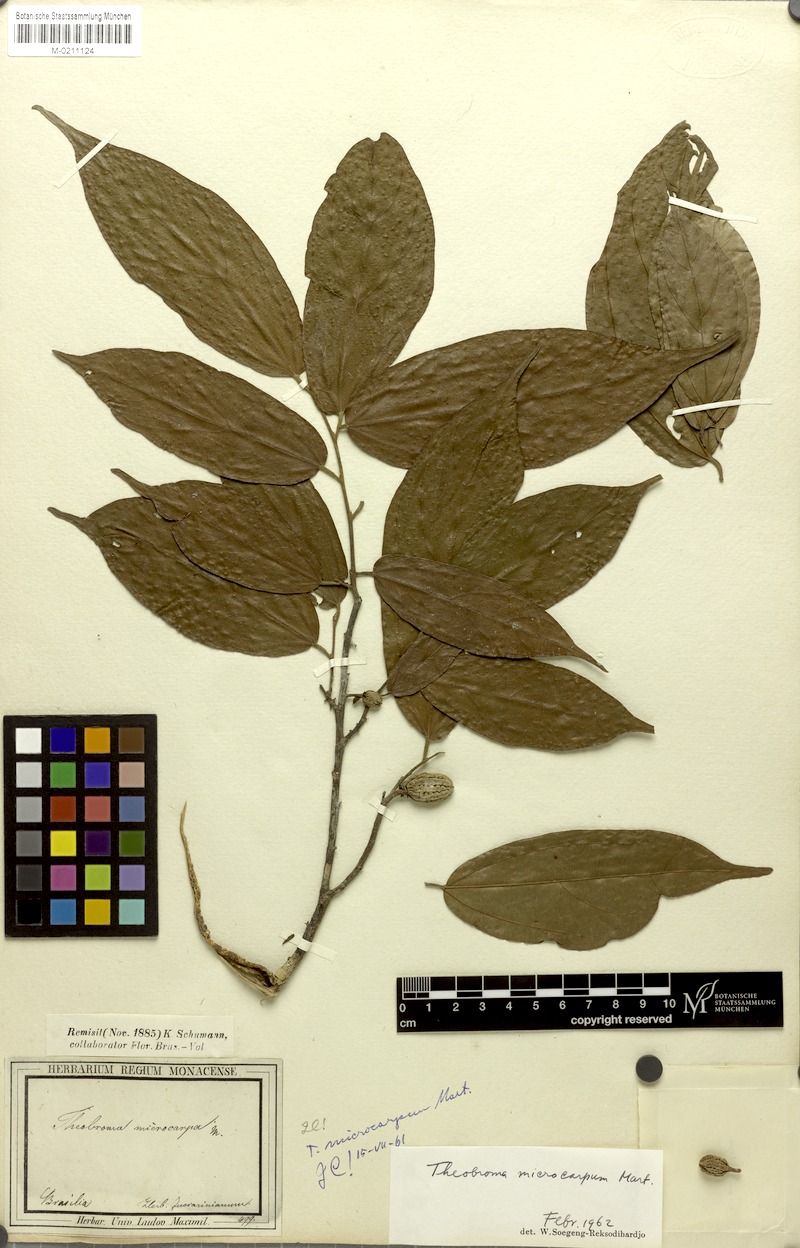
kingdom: Plantae
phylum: Tracheophyta
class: Magnoliopsida
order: Malvales
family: Malvaceae
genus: Theobroma
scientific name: Theobroma microcarpum
